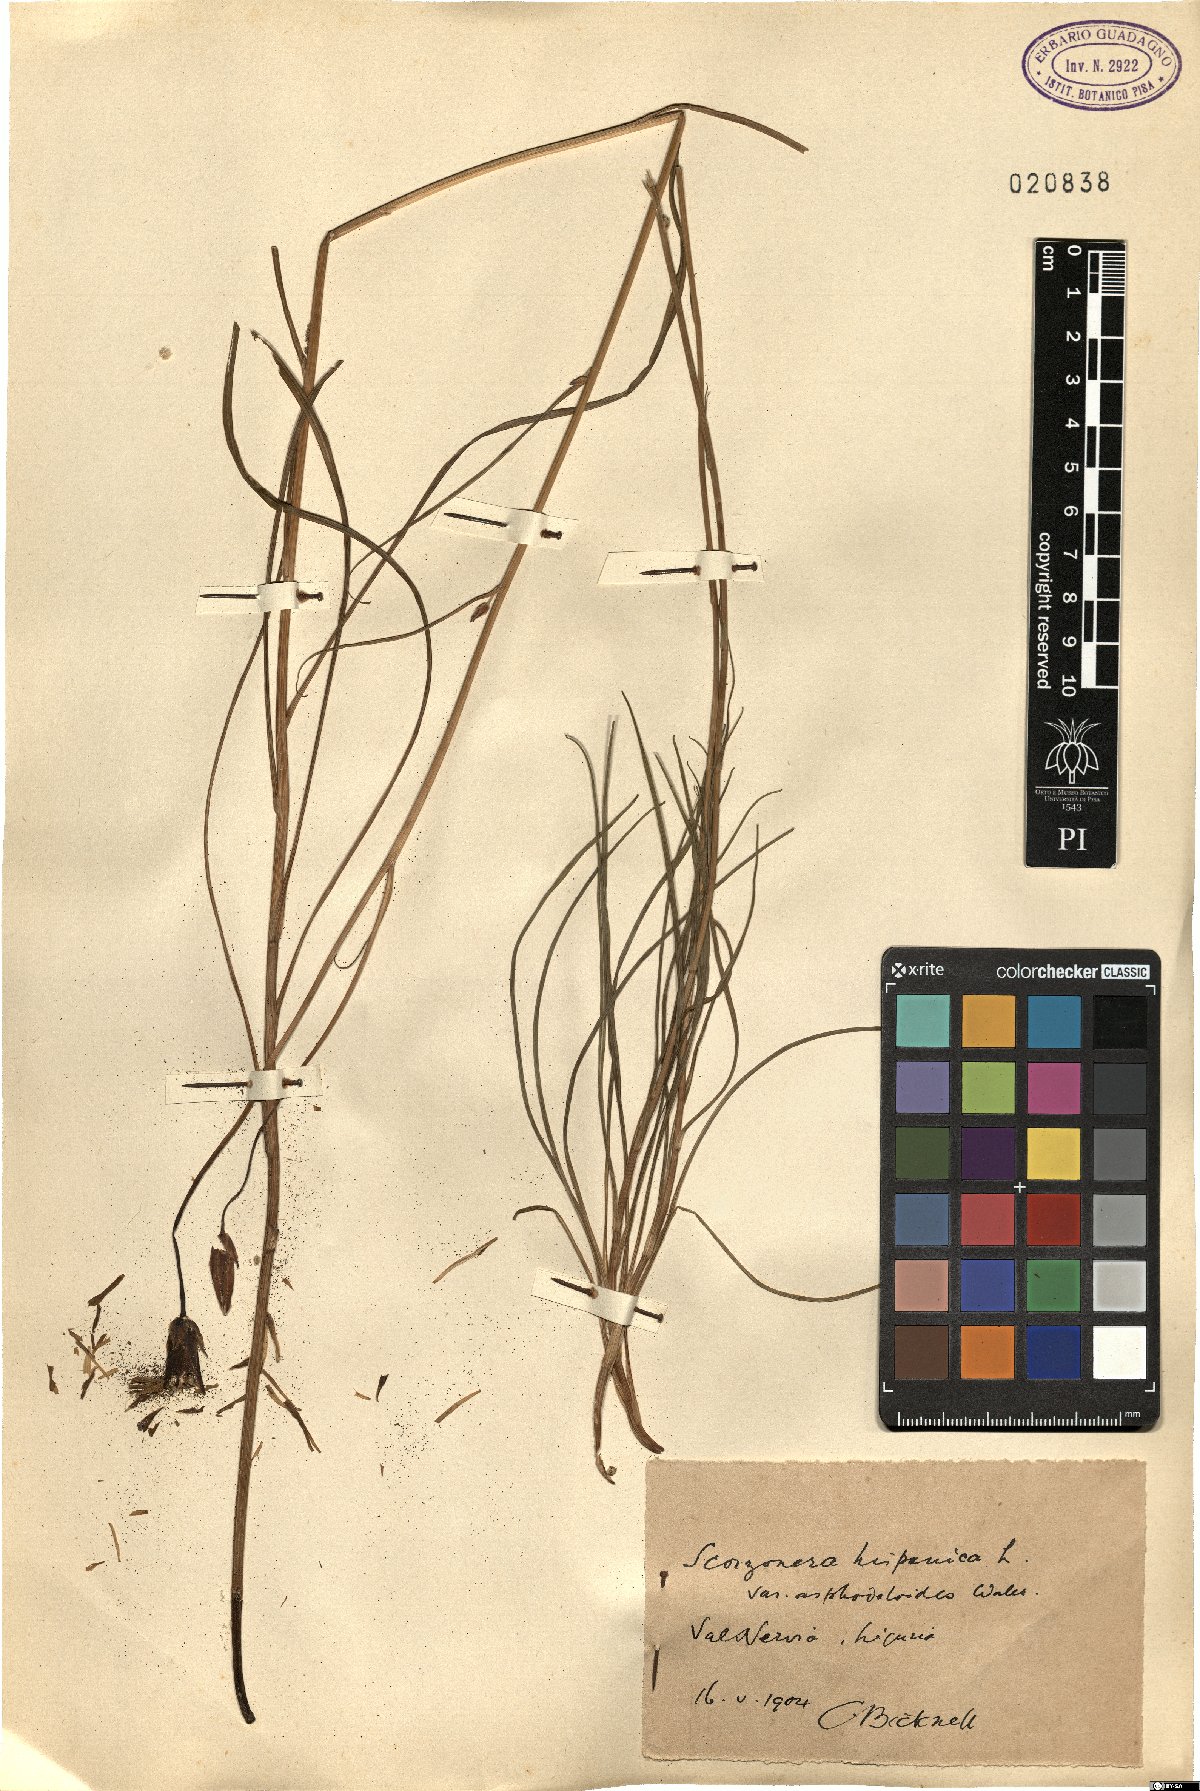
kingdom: Plantae
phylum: Tracheophyta
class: Magnoliopsida
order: Asterales
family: Asteraceae
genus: Pseudopodospermum
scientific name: Pseudopodospermum strictum
